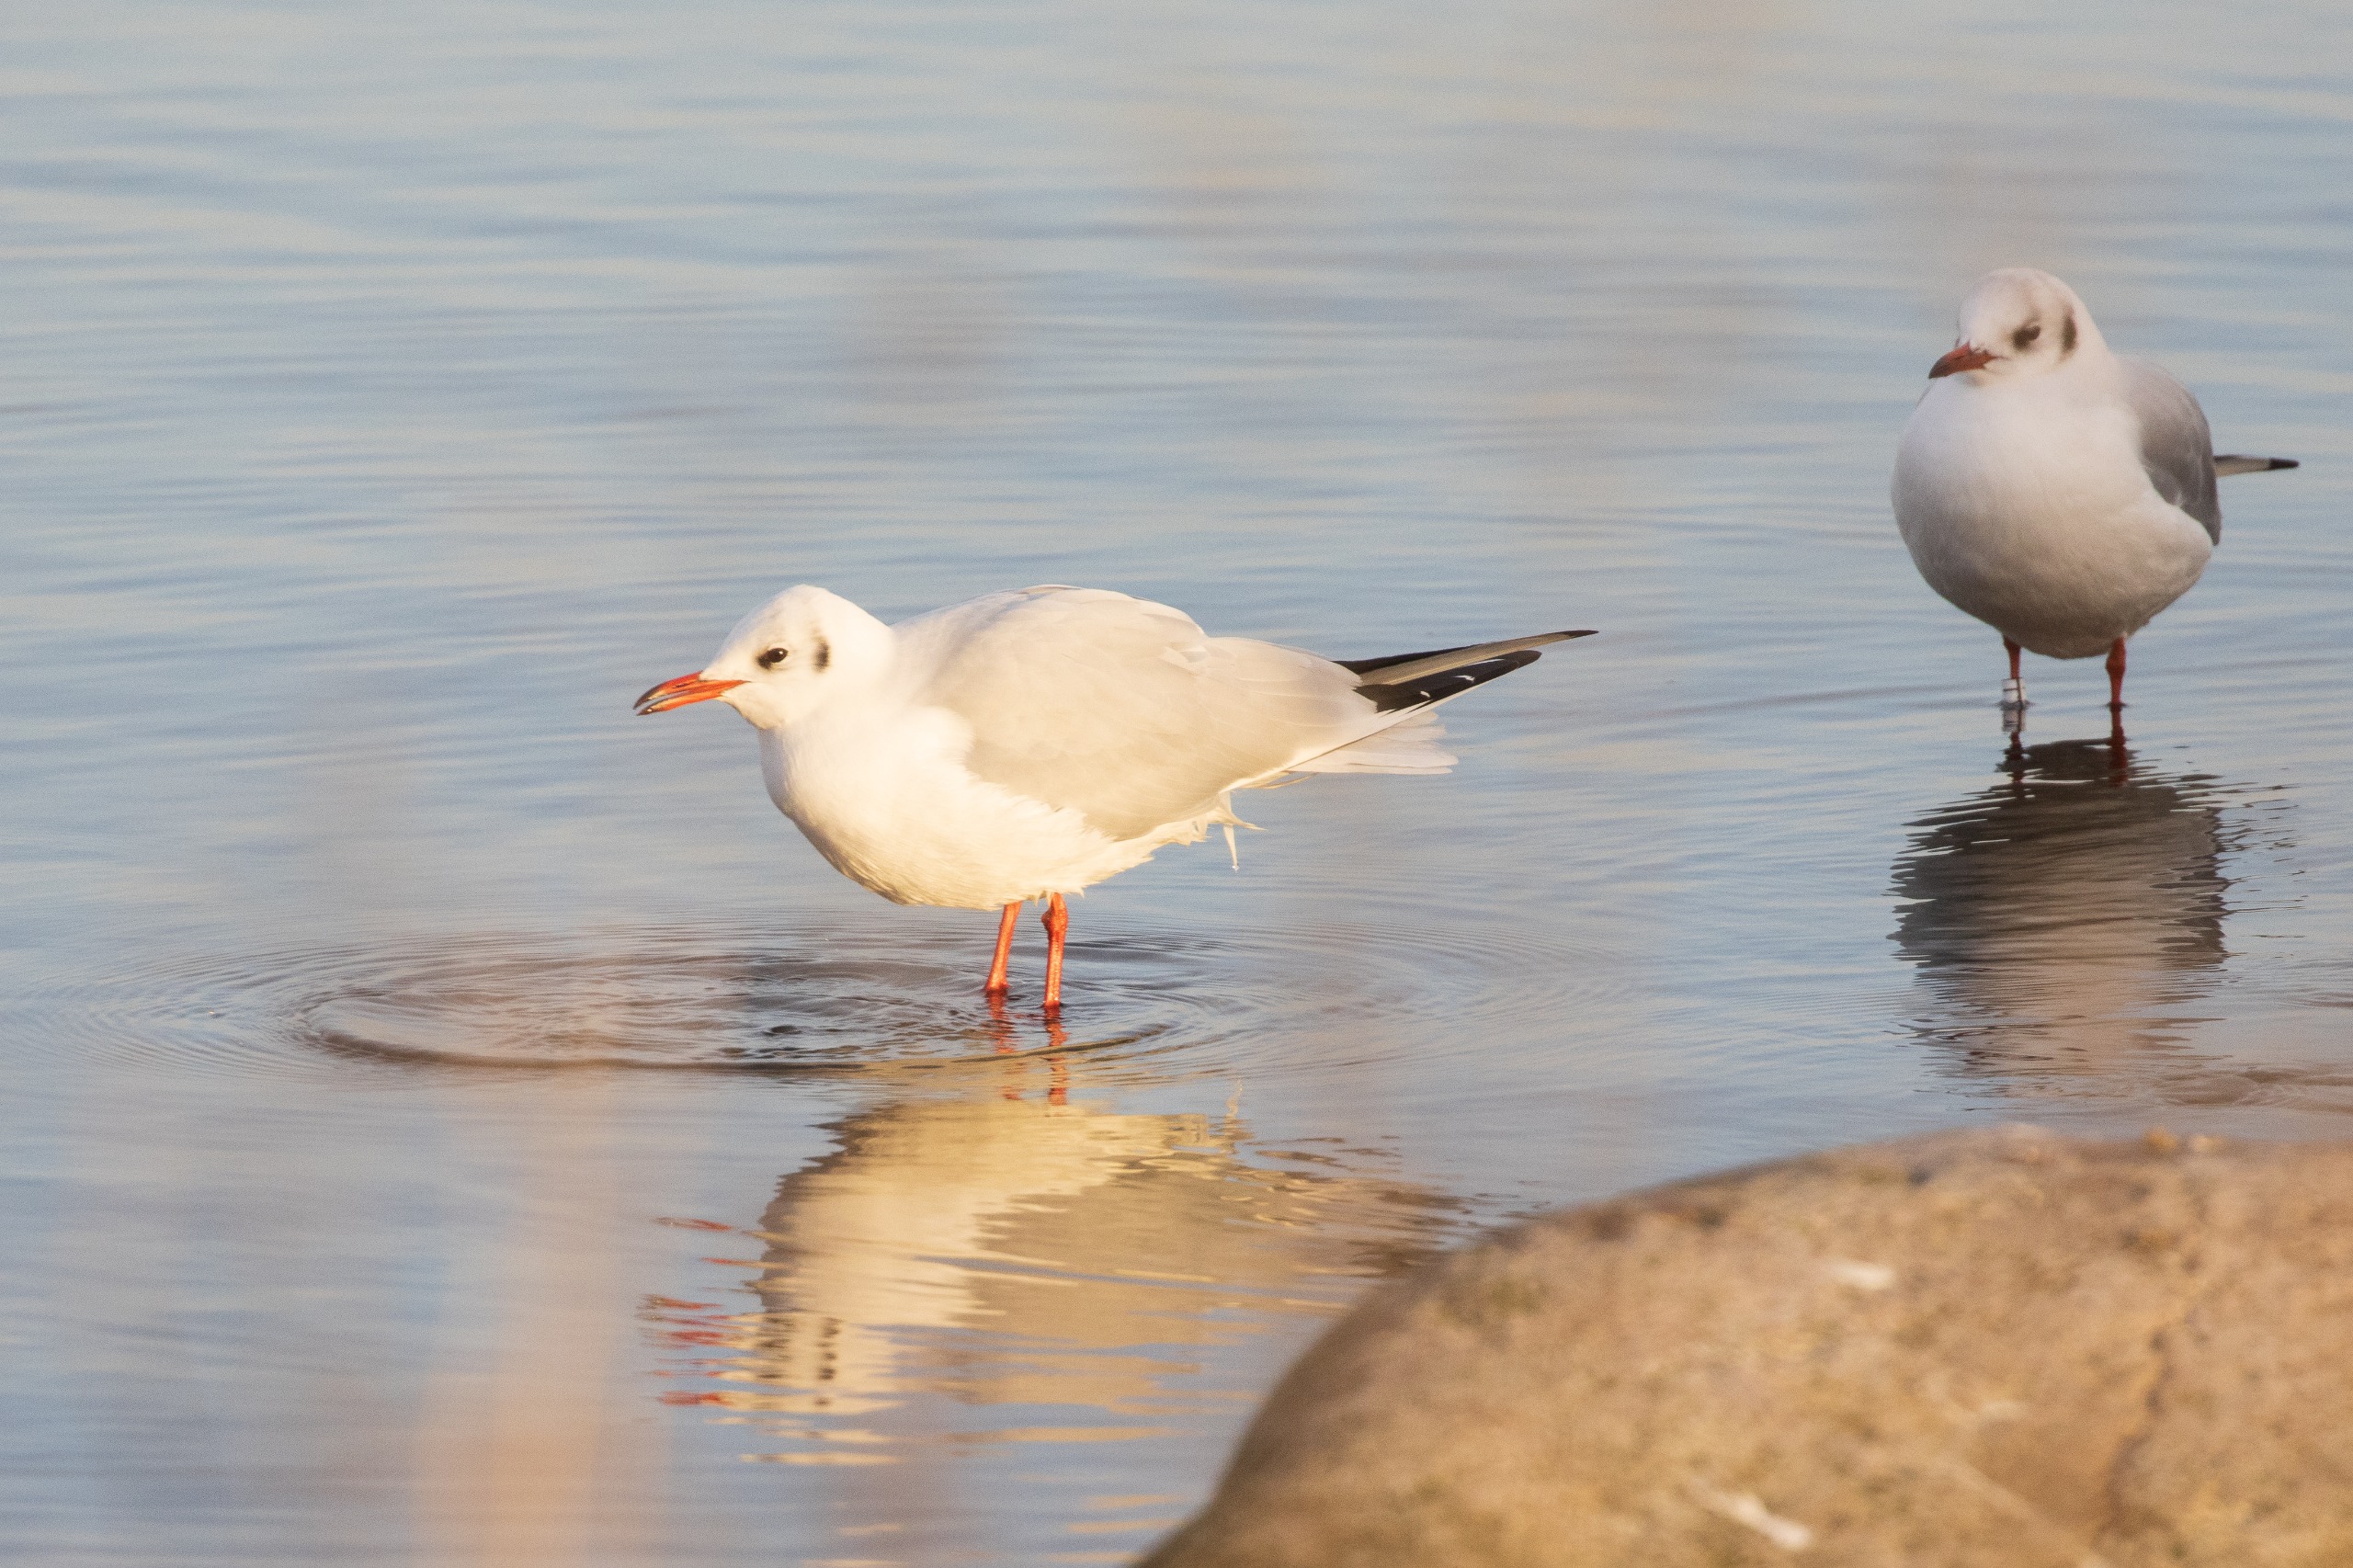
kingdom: Animalia
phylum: Chordata
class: Aves
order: Charadriiformes
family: Laridae
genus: Chroicocephalus
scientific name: Chroicocephalus ridibundus
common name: Hættemåge
